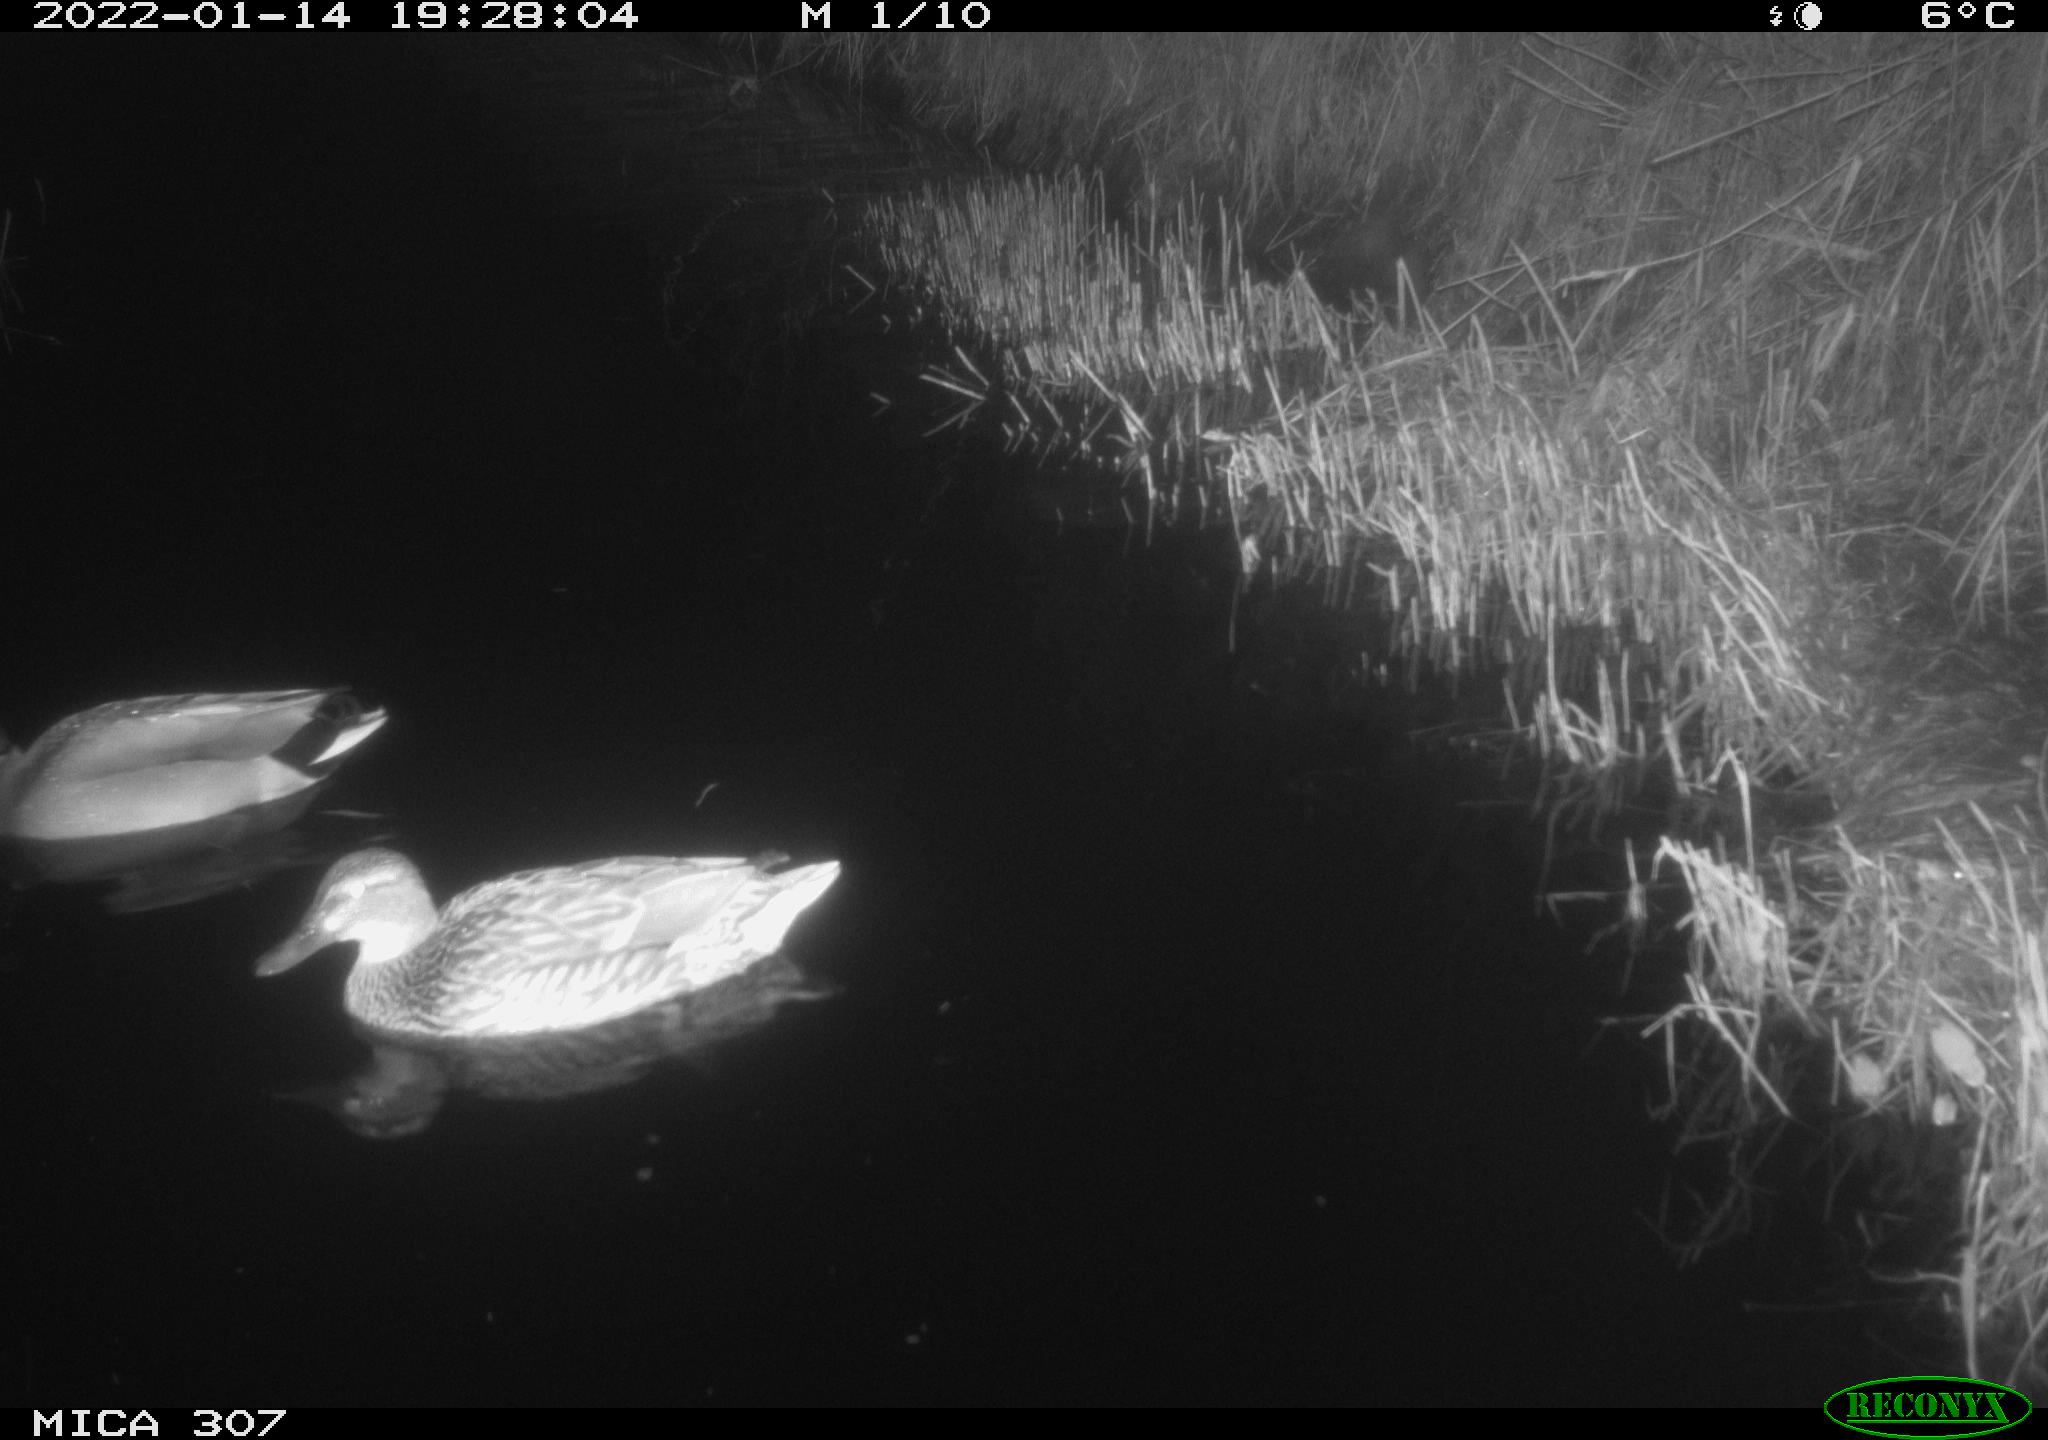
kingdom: Animalia
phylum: Chordata
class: Aves
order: Anseriformes
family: Anatidae
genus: Anas
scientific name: Anas
